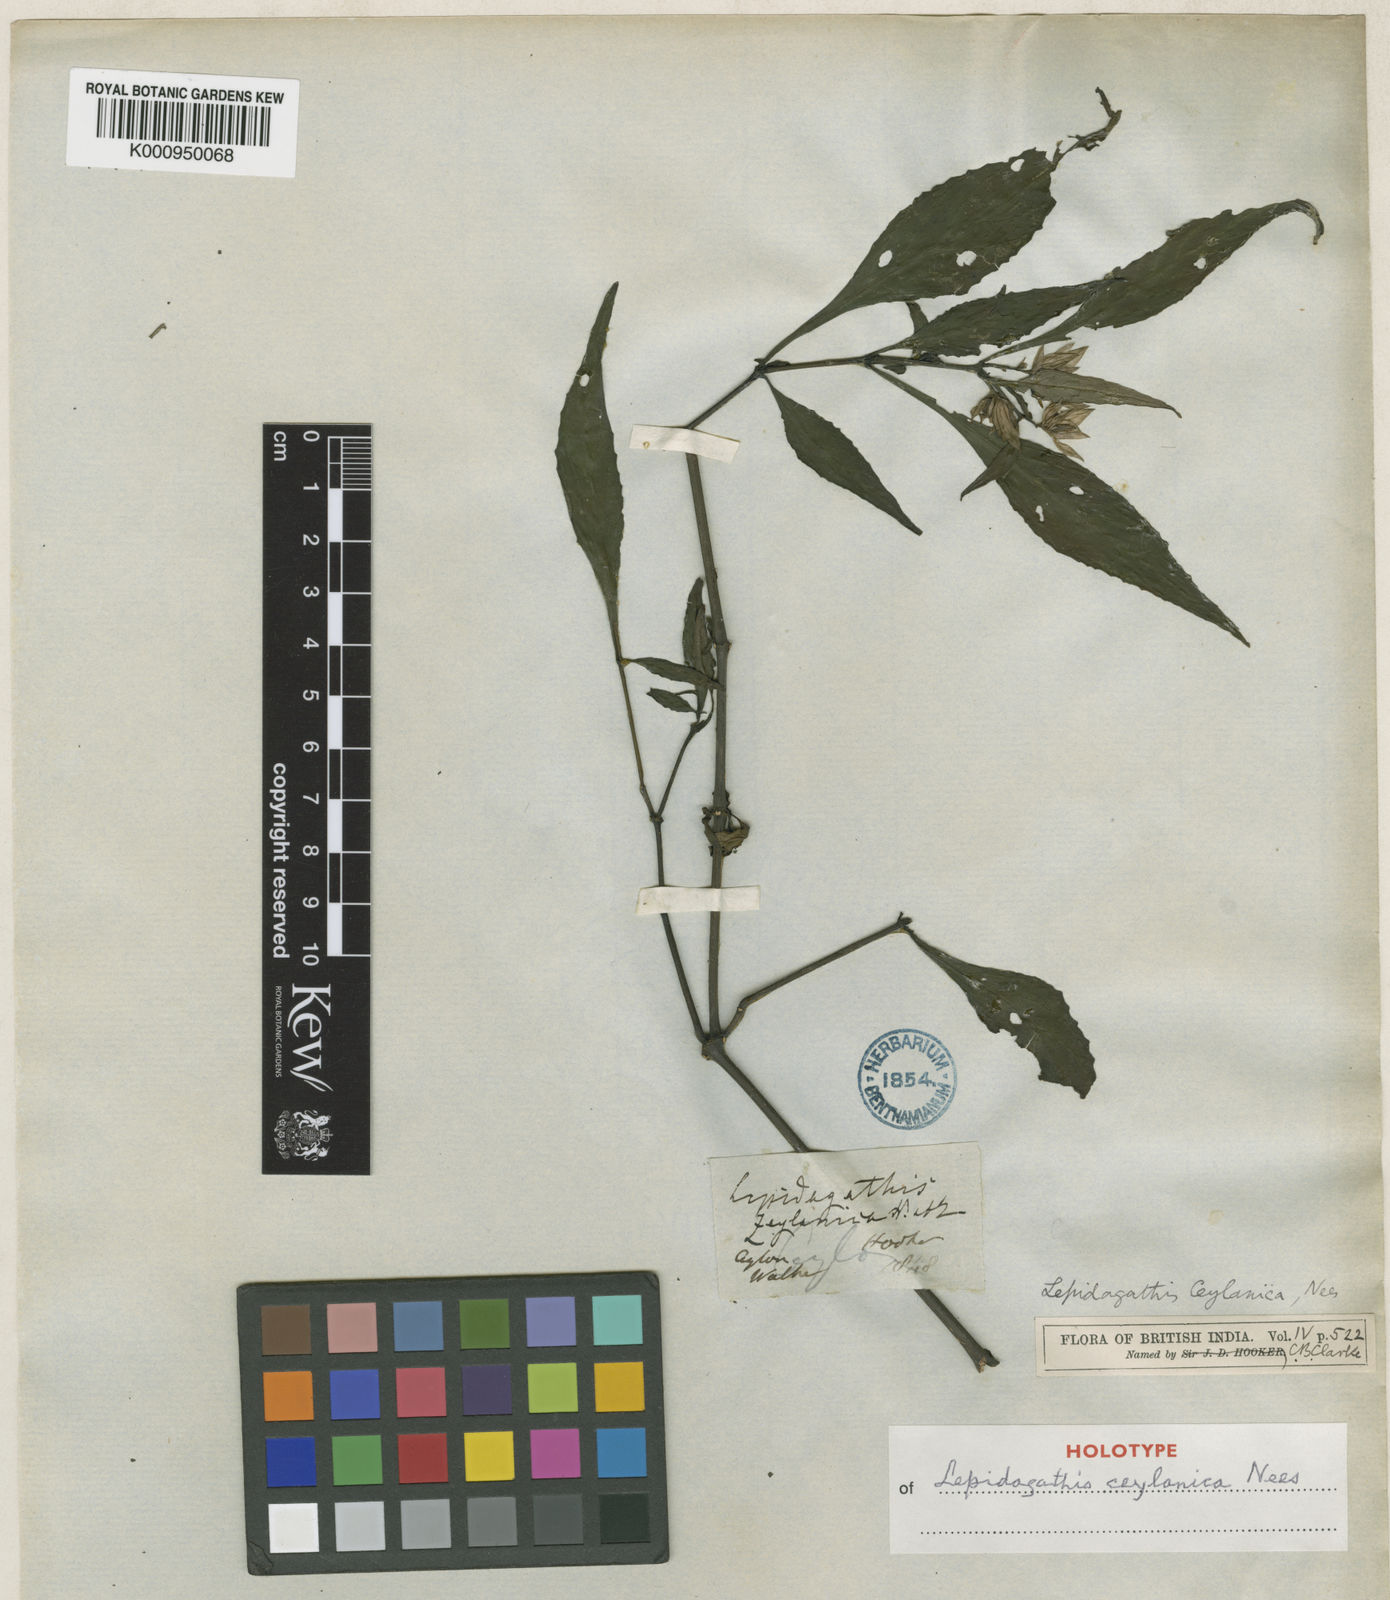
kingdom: Plantae
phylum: Tracheophyta
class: Magnoliopsida
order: Lamiales
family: Acanthaceae
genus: Lepidagathis
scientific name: Lepidagathis ceylanica
